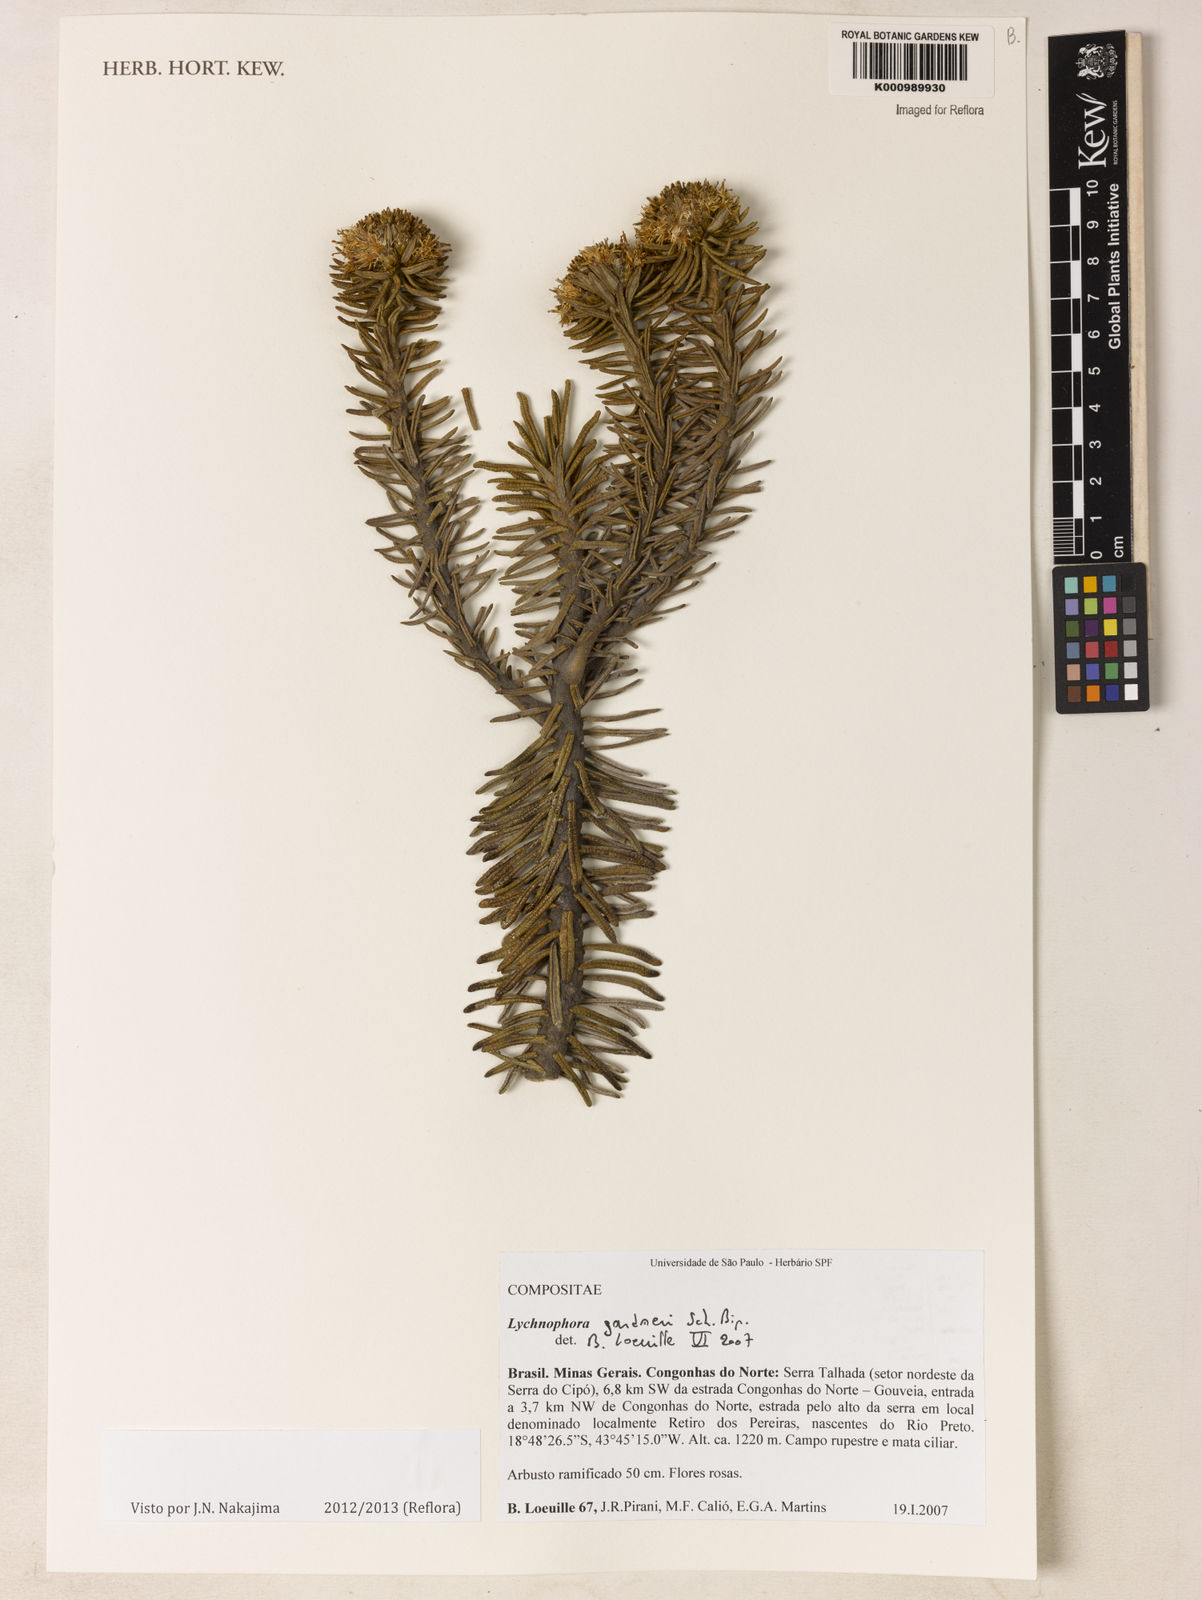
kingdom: Plantae
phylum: Tracheophyta
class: Magnoliopsida
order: Asterales
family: Asteraceae
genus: Lychnophora
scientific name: Lychnophora gardneri
